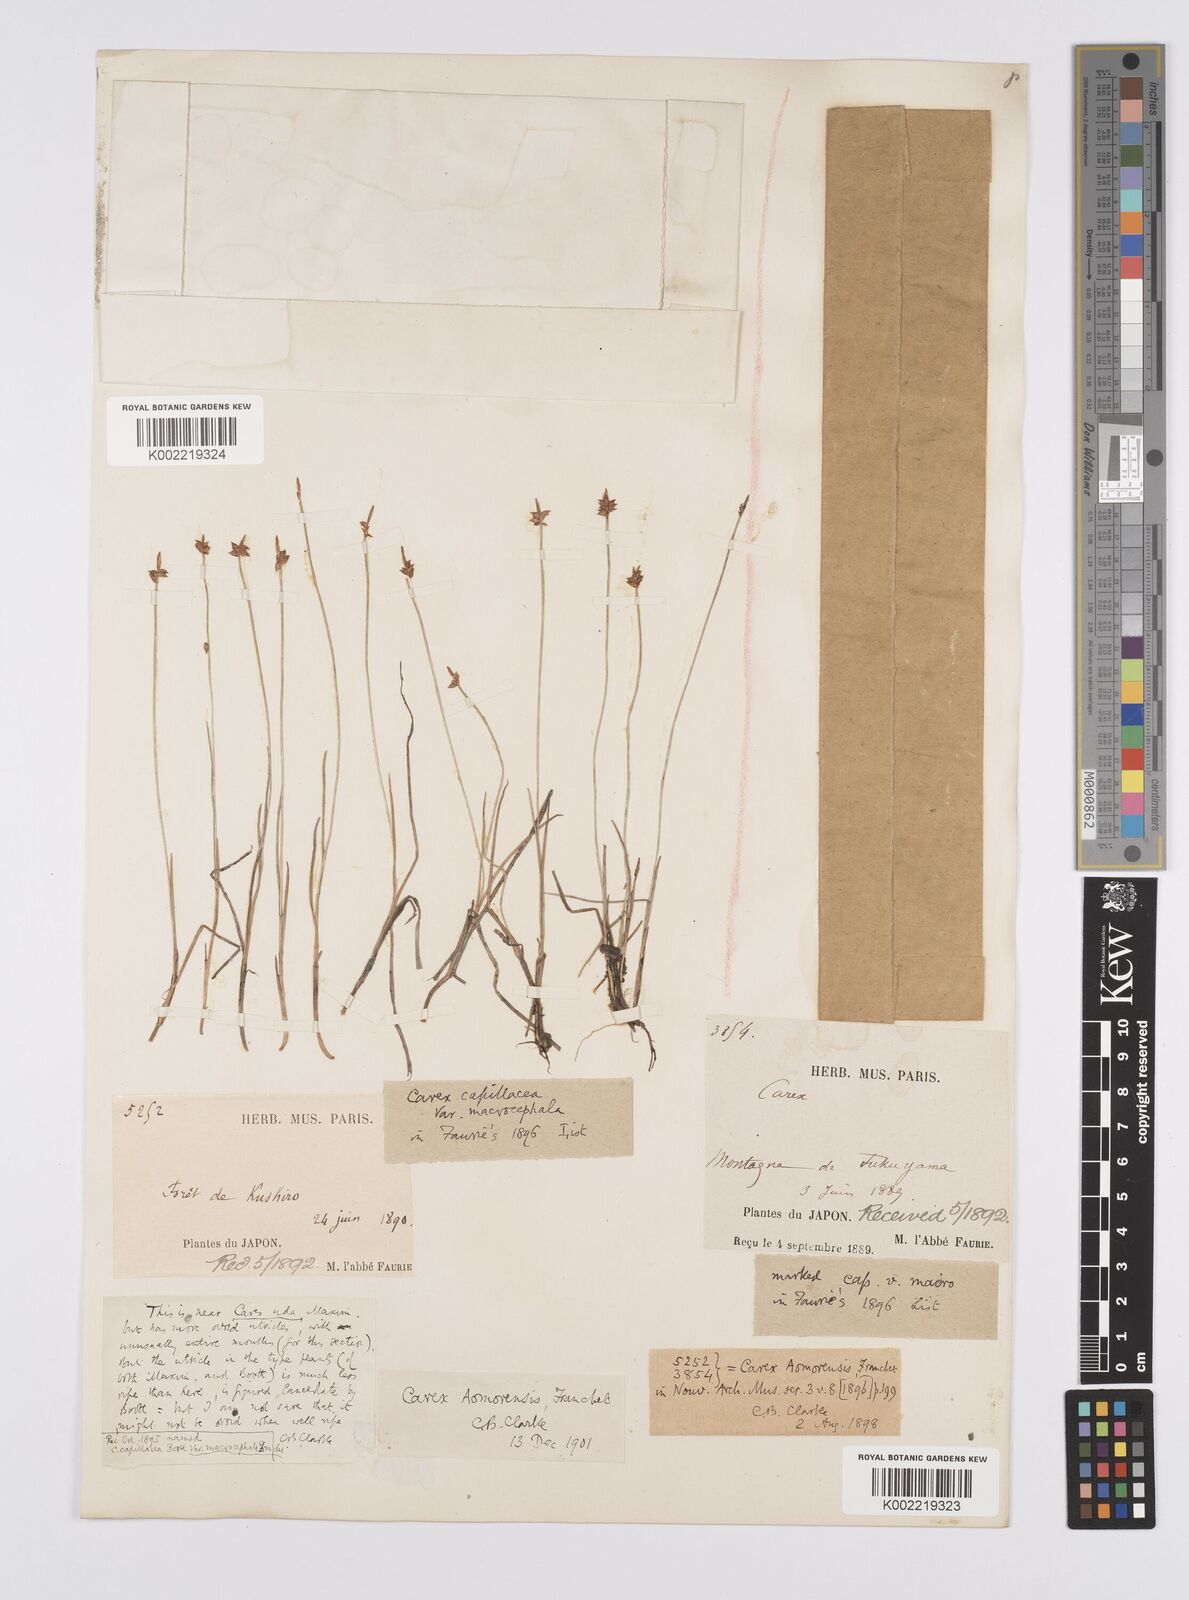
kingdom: Plantae
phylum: Tracheophyta
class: Liliopsida
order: Poales
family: Cyperaceae
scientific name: Cyperaceae
